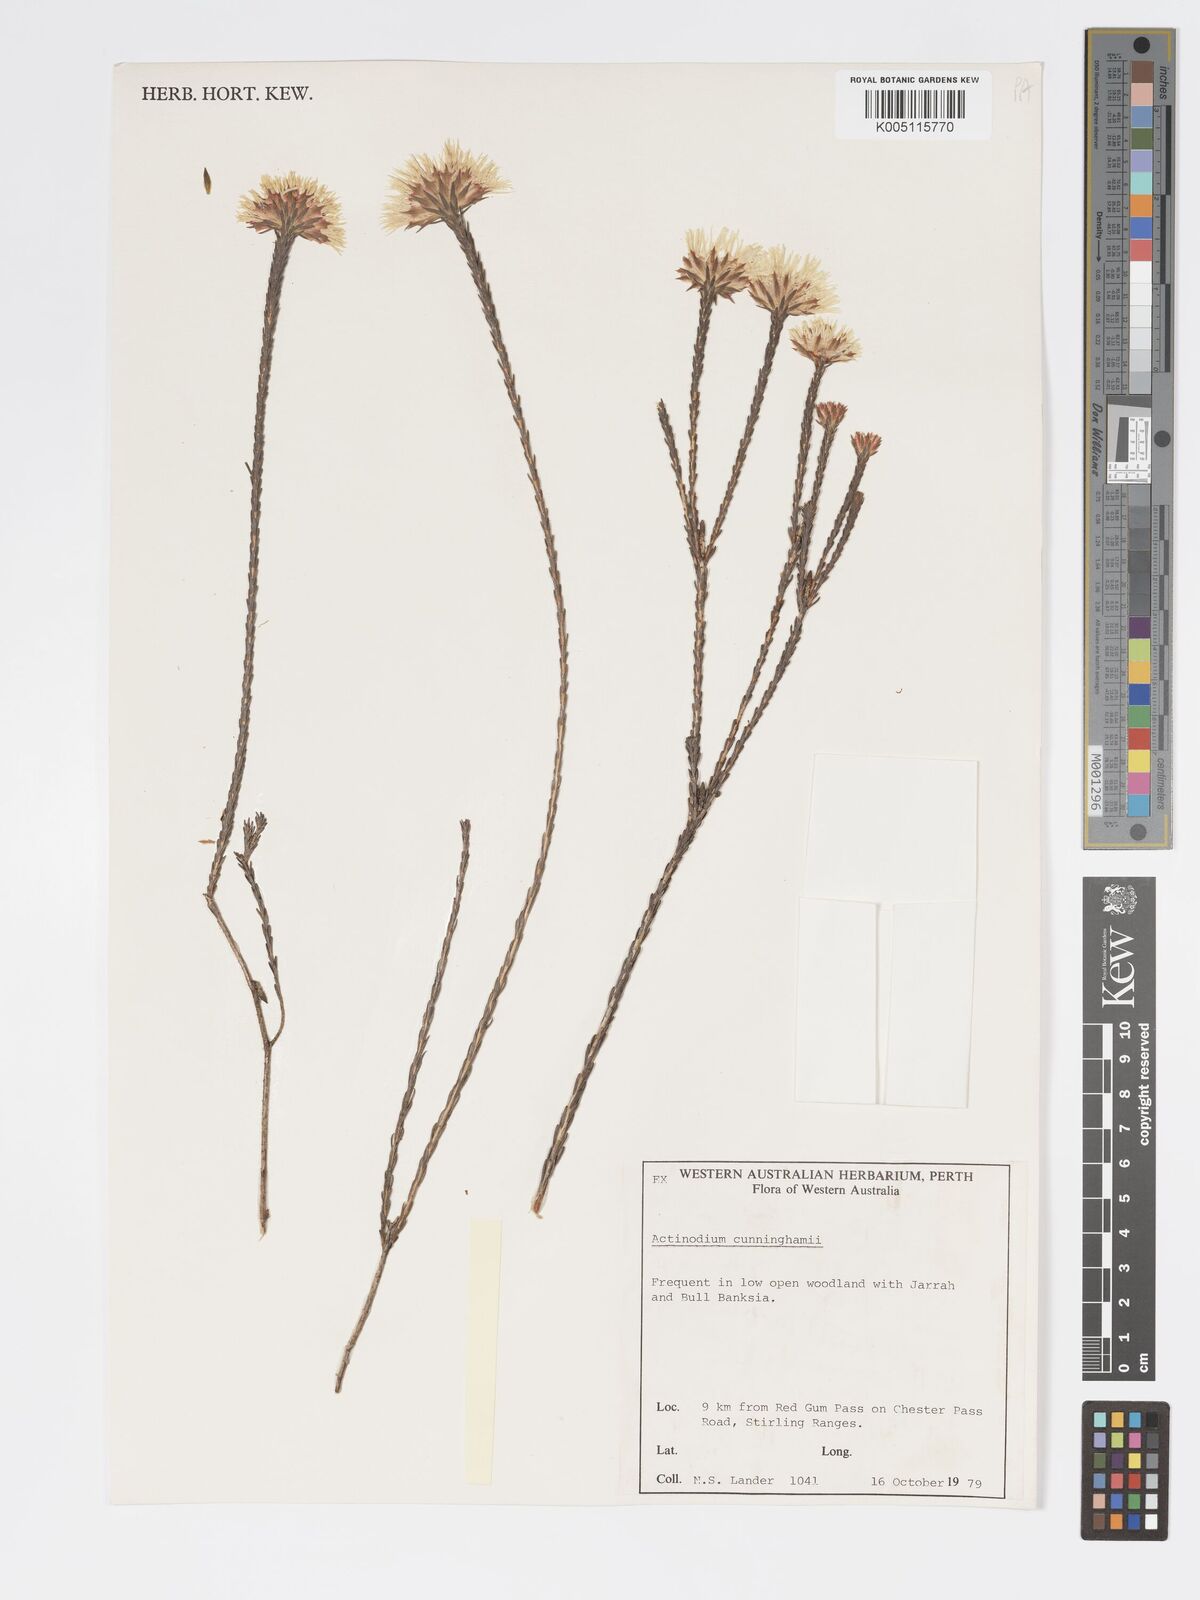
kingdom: Plantae
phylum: Tracheophyta
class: Magnoliopsida
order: Myrtales
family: Myrtaceae
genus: Actinodium
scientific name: Actinodium cunninghamii
